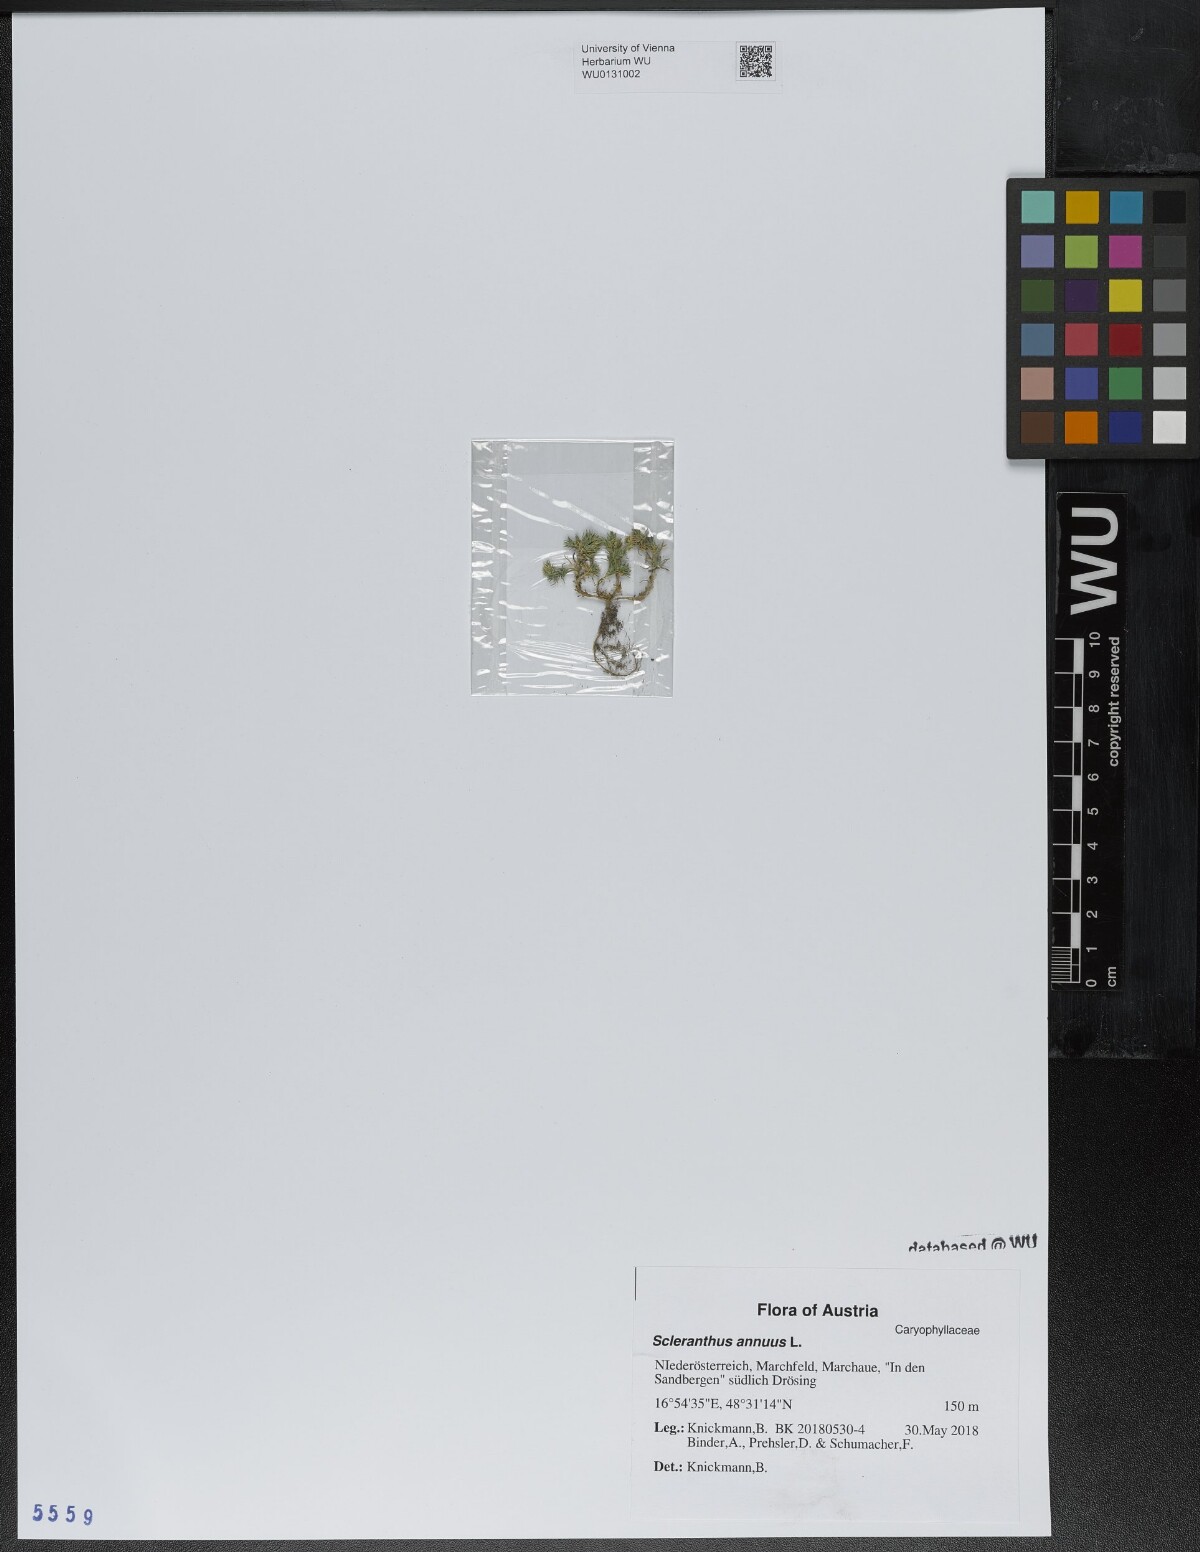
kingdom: Plantae
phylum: Tracheophyta
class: Magnoliopsida
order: Caryophyllales
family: Caryophyllaceae
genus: Scleranthus
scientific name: Scleranthus annuus
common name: Annual knawel
